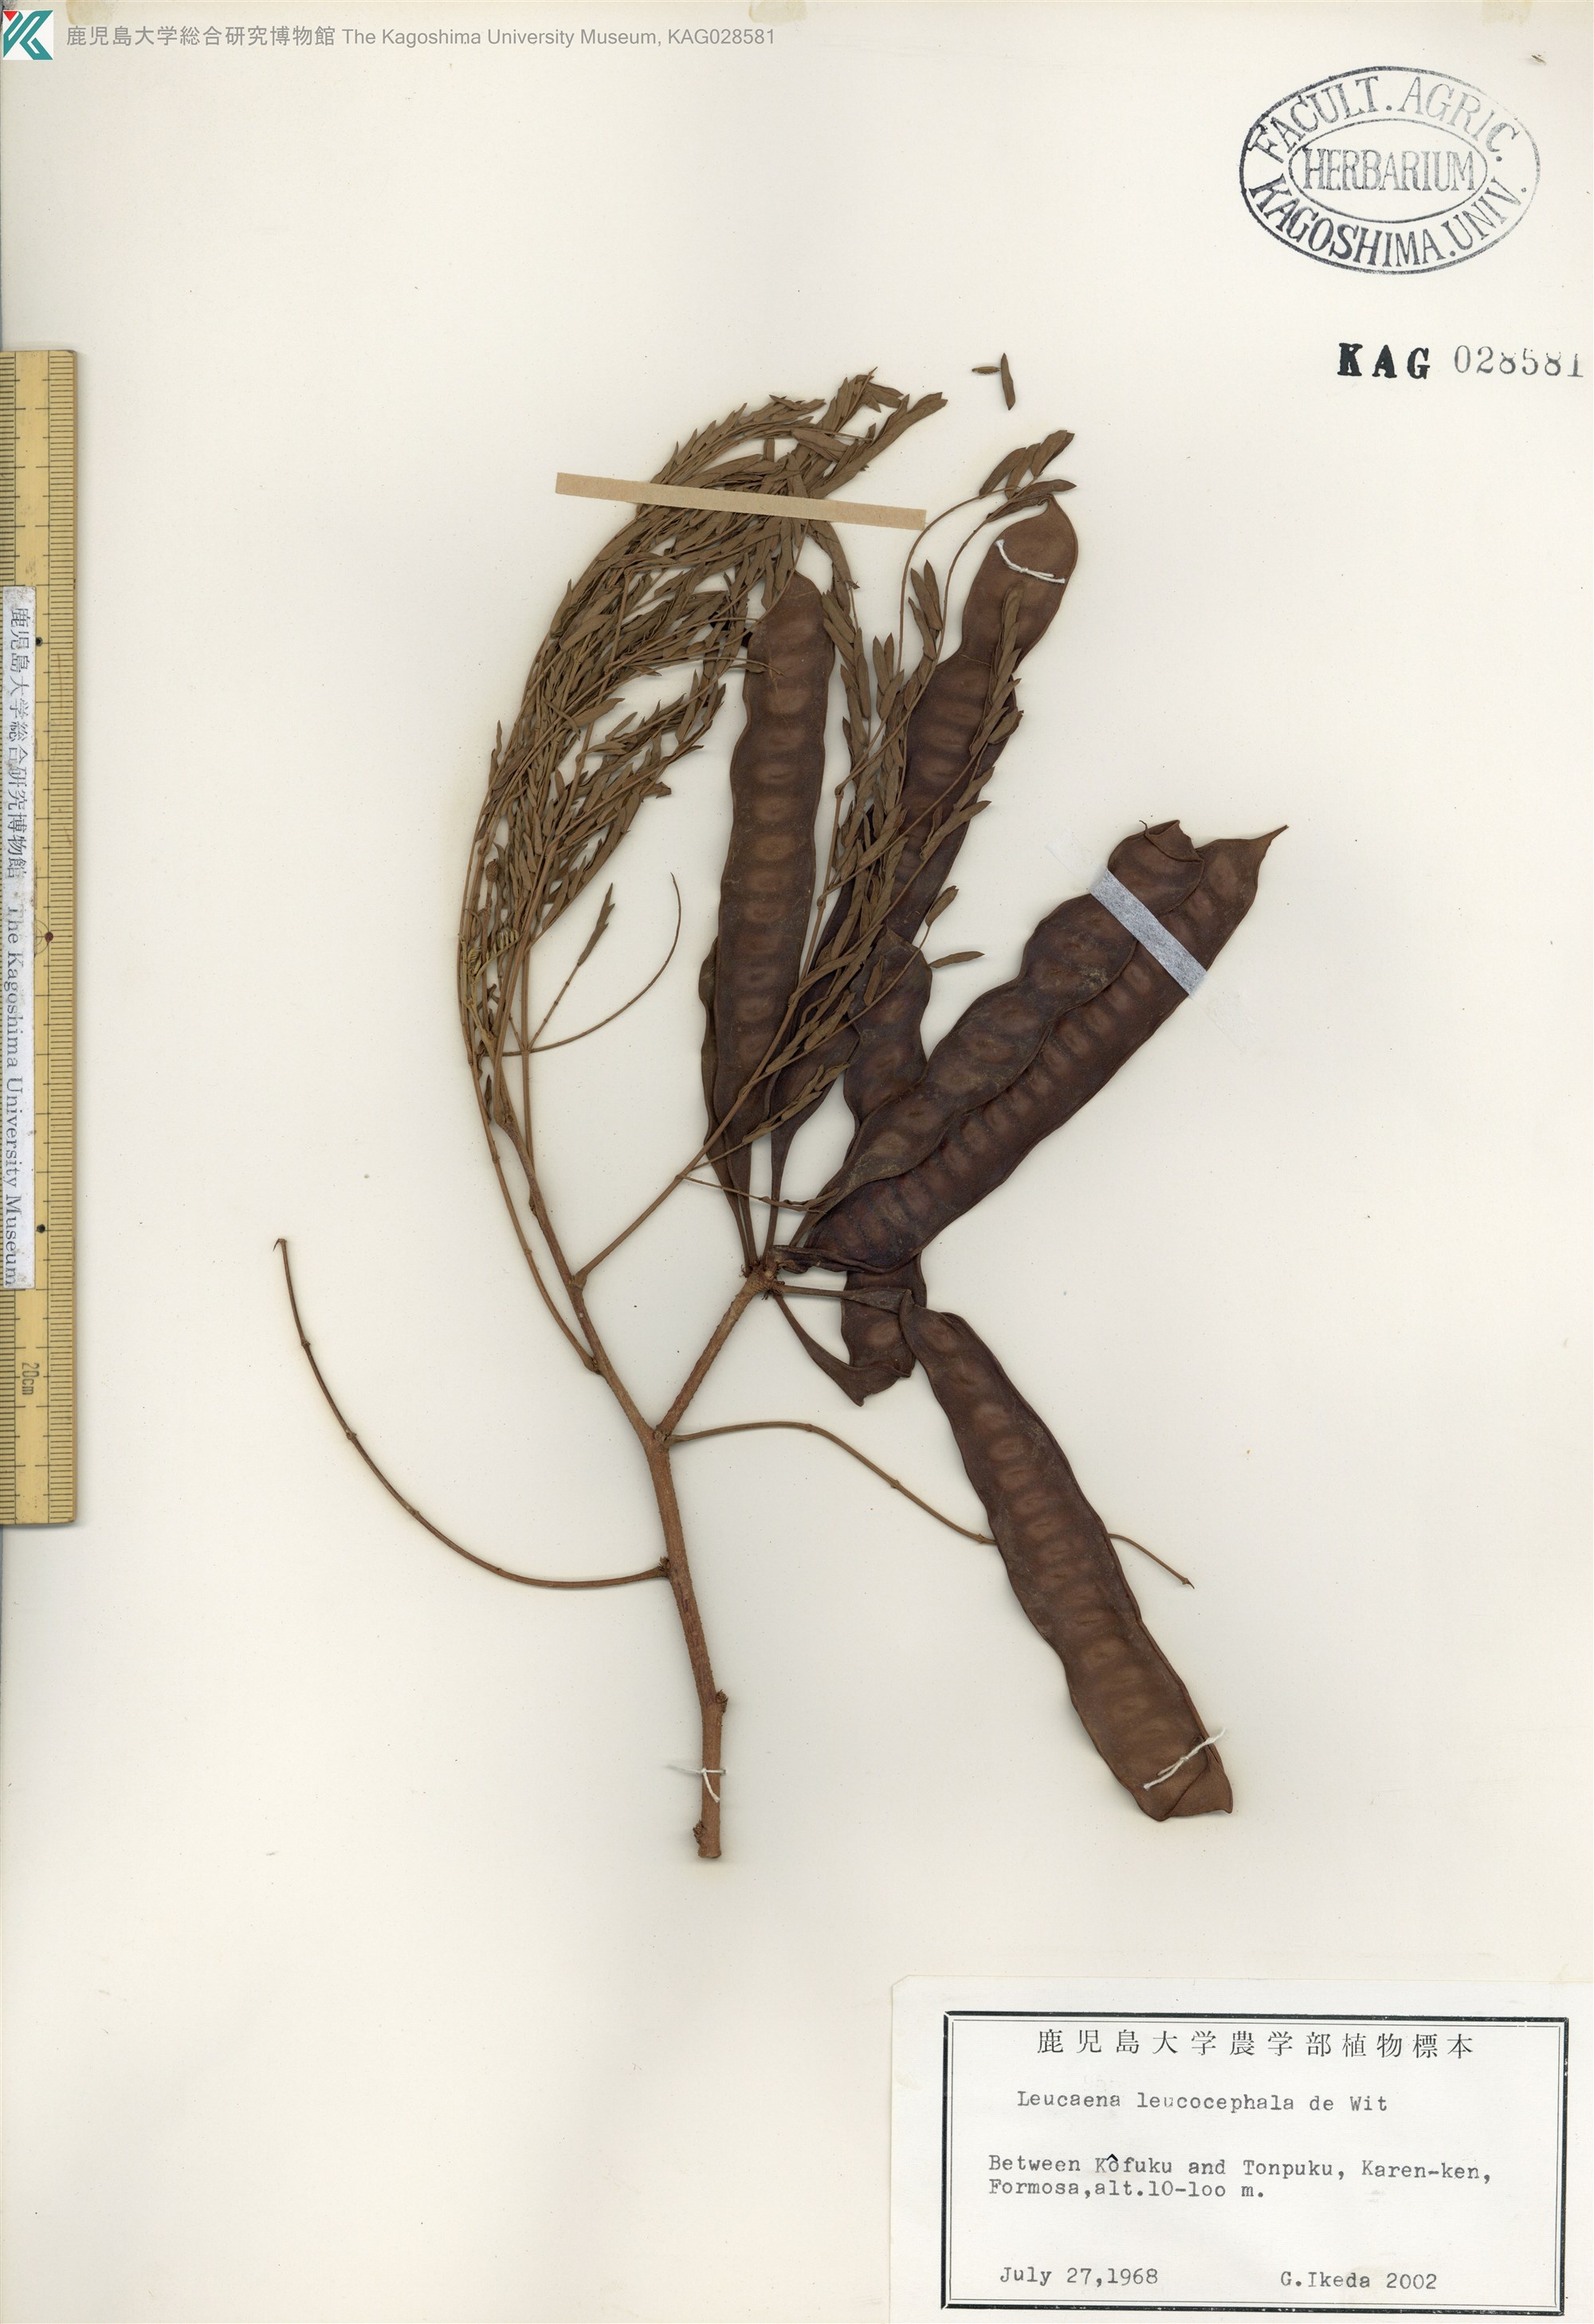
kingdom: Plantae
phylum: Tracheophyta
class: Magnoliopsida
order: Fabales
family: Fabaceae
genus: Leucaena
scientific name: Leucaena leucocephala
